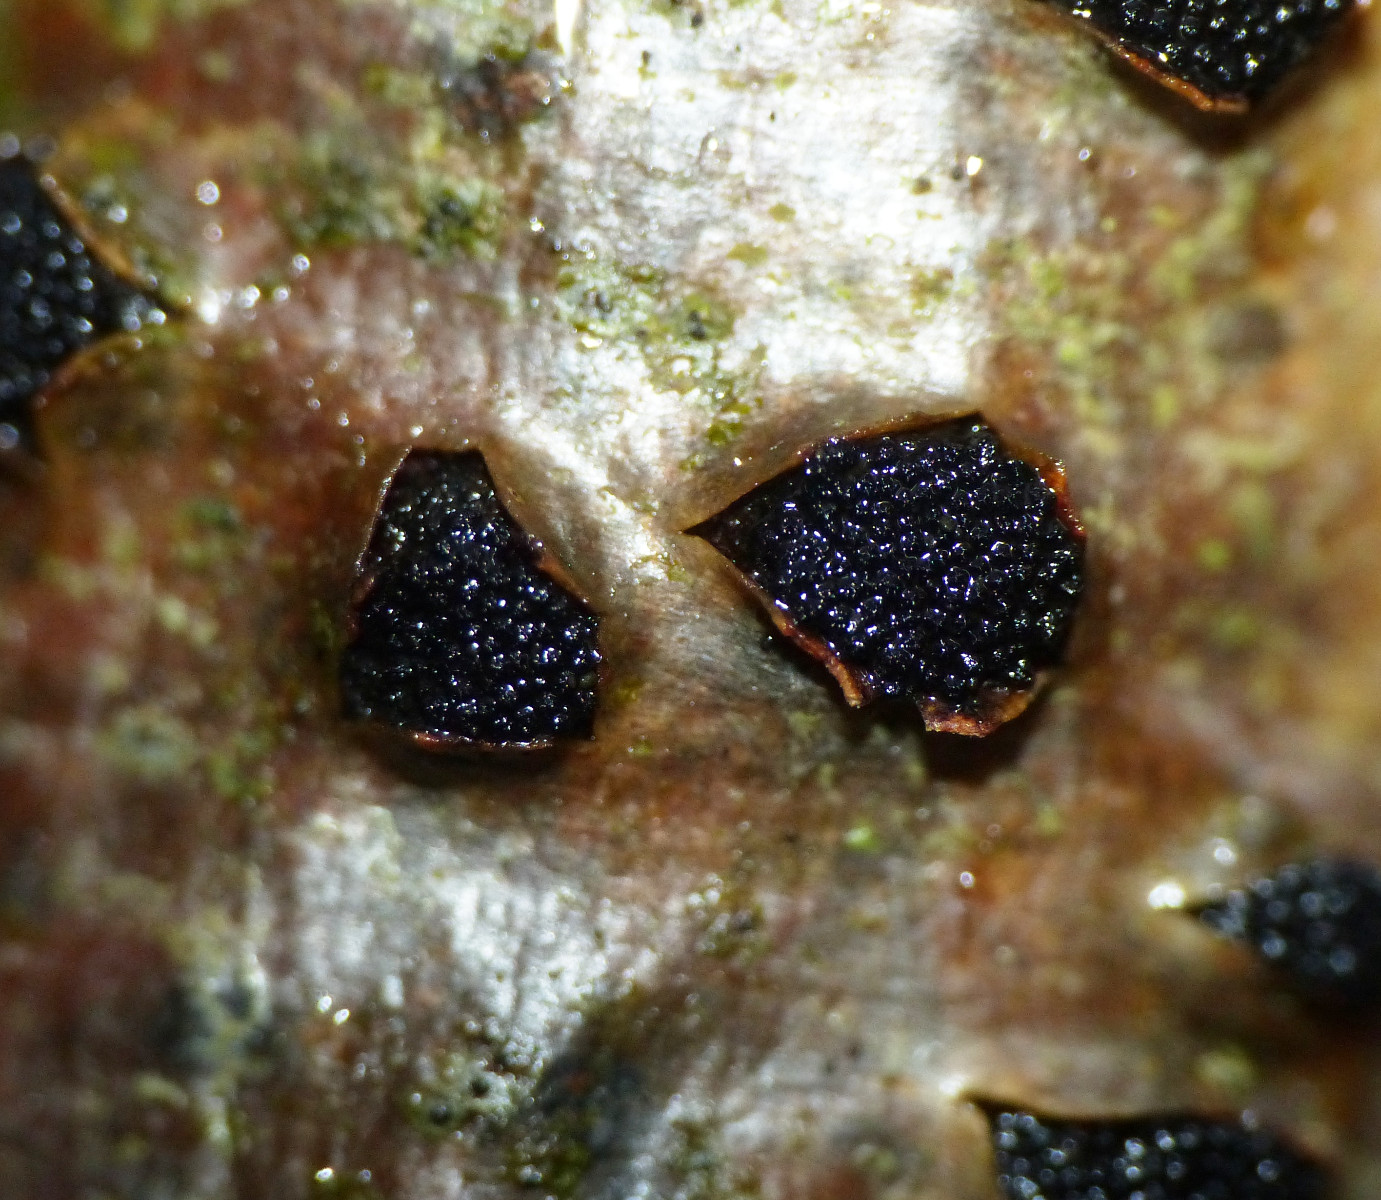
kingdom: Fungi
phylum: Ascomycota
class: Sordariomycetes
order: Xylariales
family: Diatrypaceae
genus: Eutypella
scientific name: Eutypella sorbi
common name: rønne-kulskorpe
